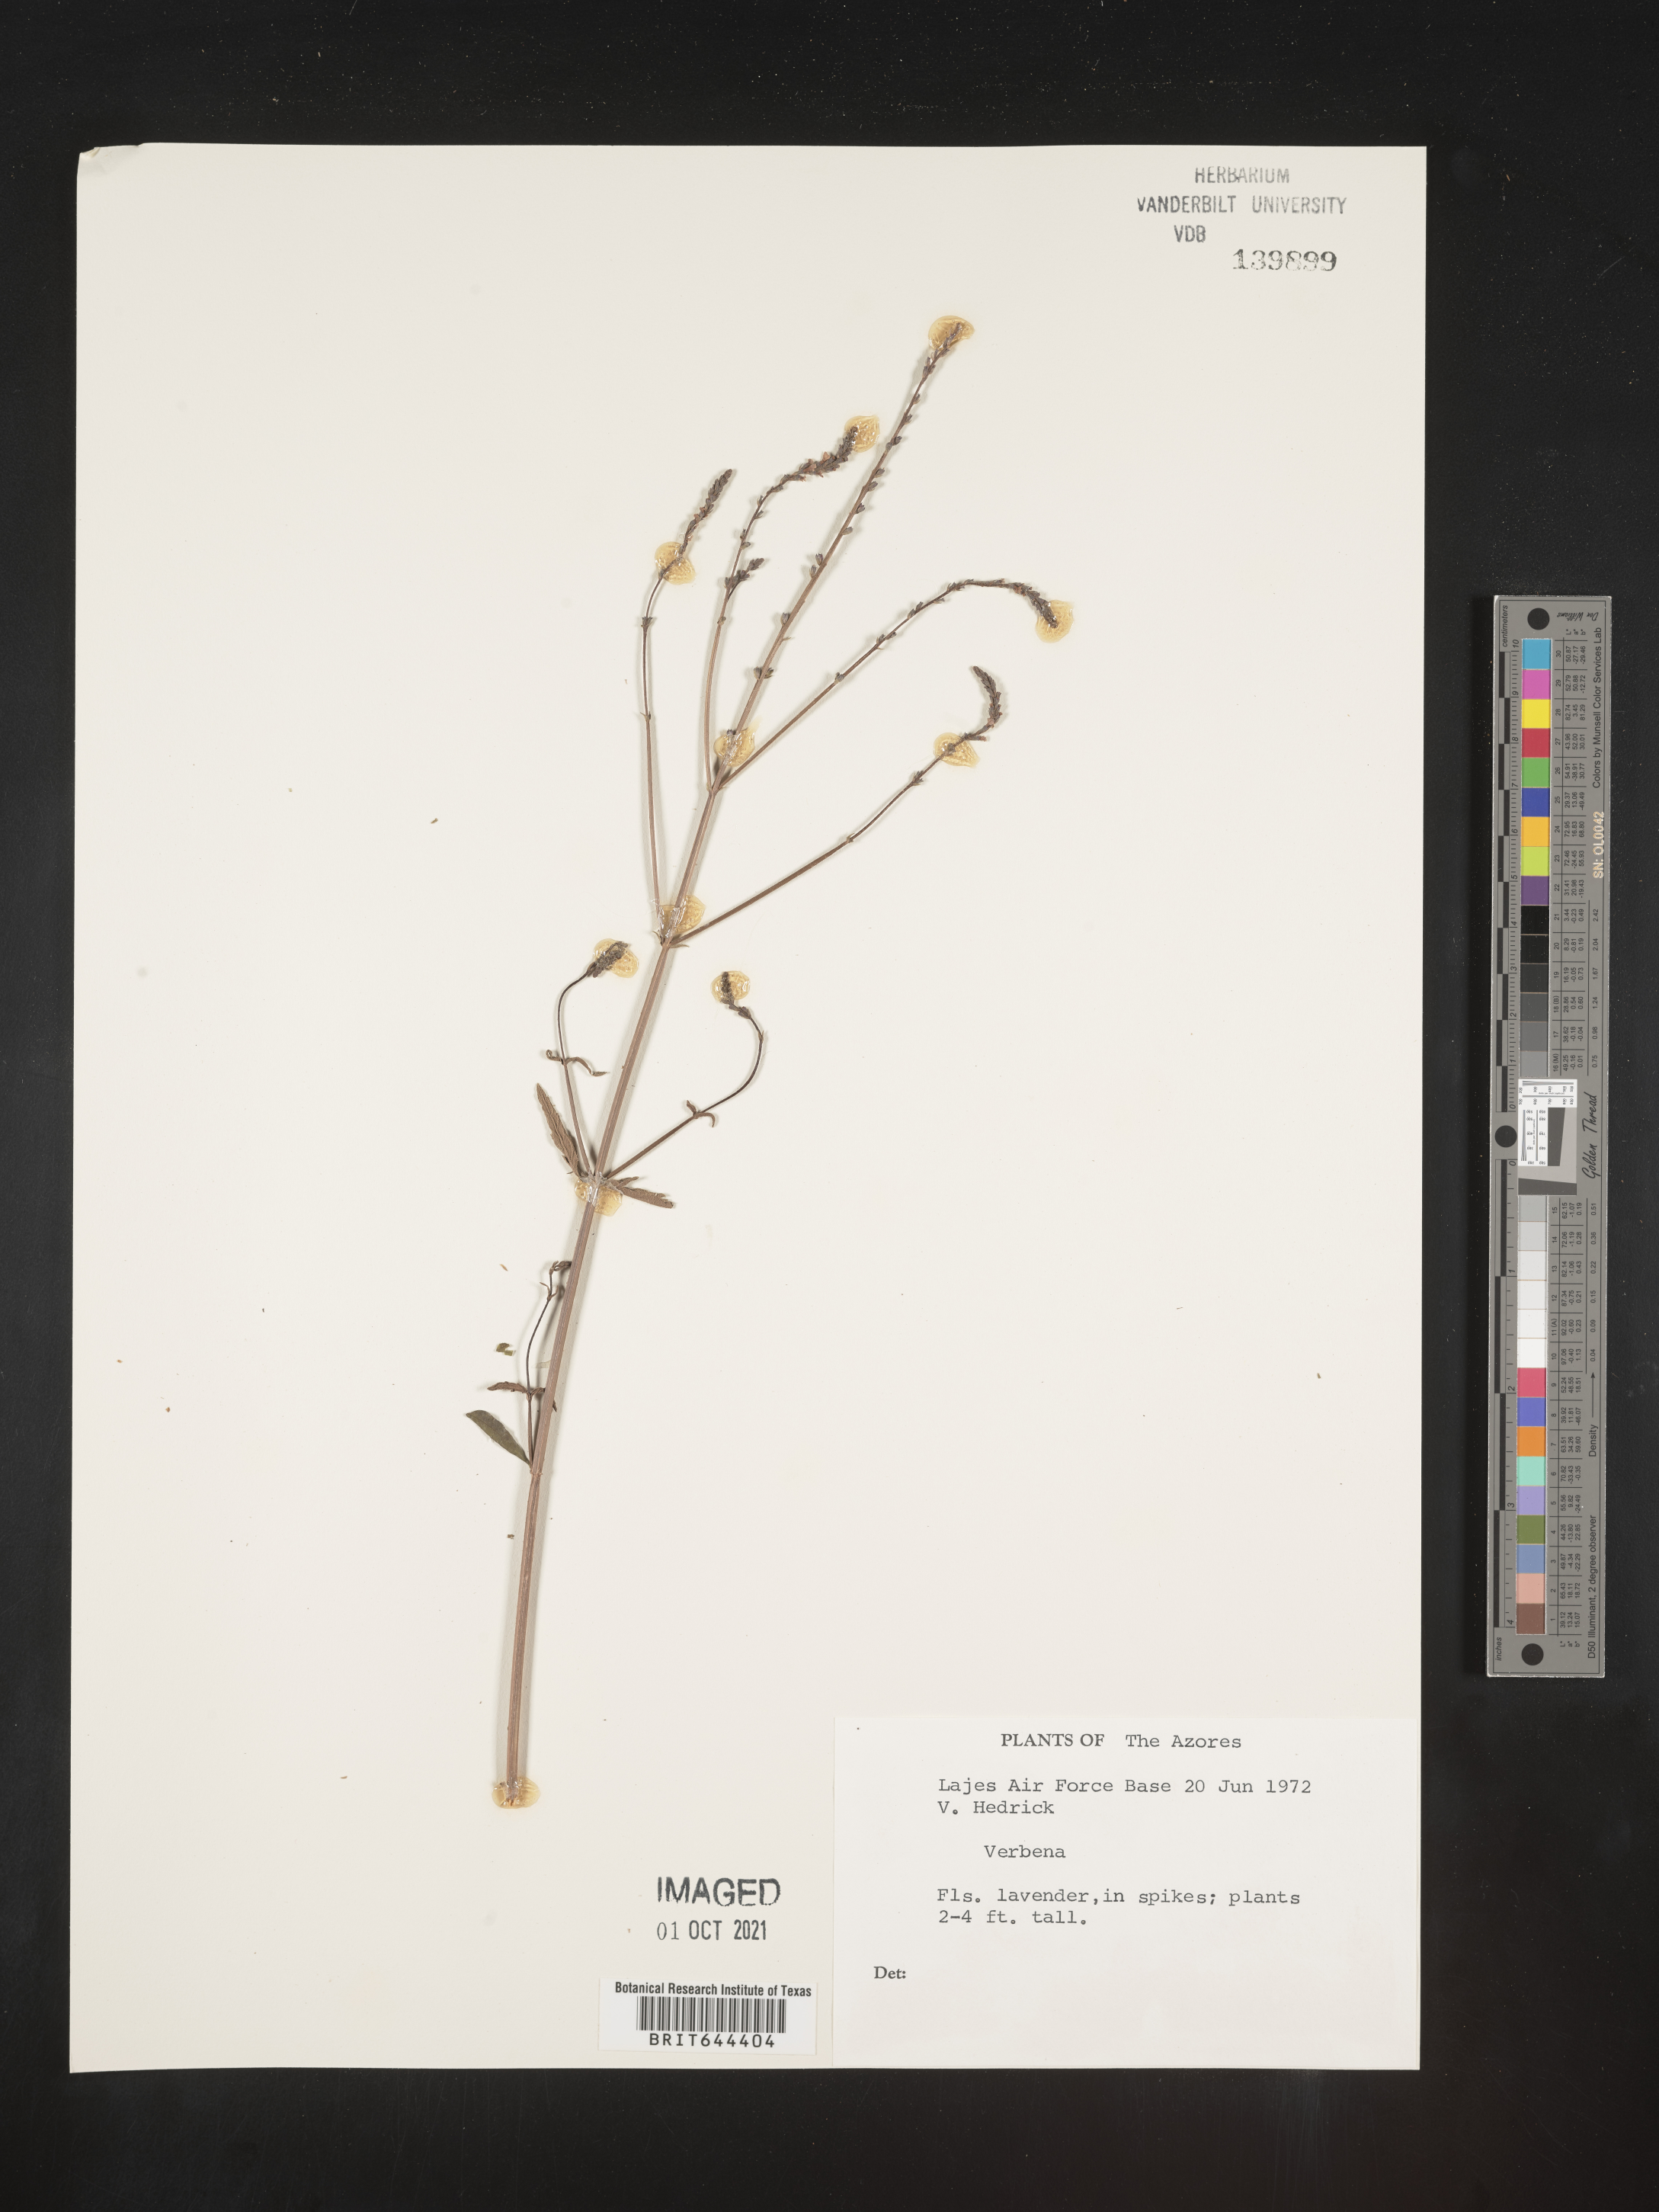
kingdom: Plantae
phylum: Tracheophyta
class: Magnoliopsida
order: Lamiales
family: Verbenaceae
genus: Verbena
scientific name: Verbena
